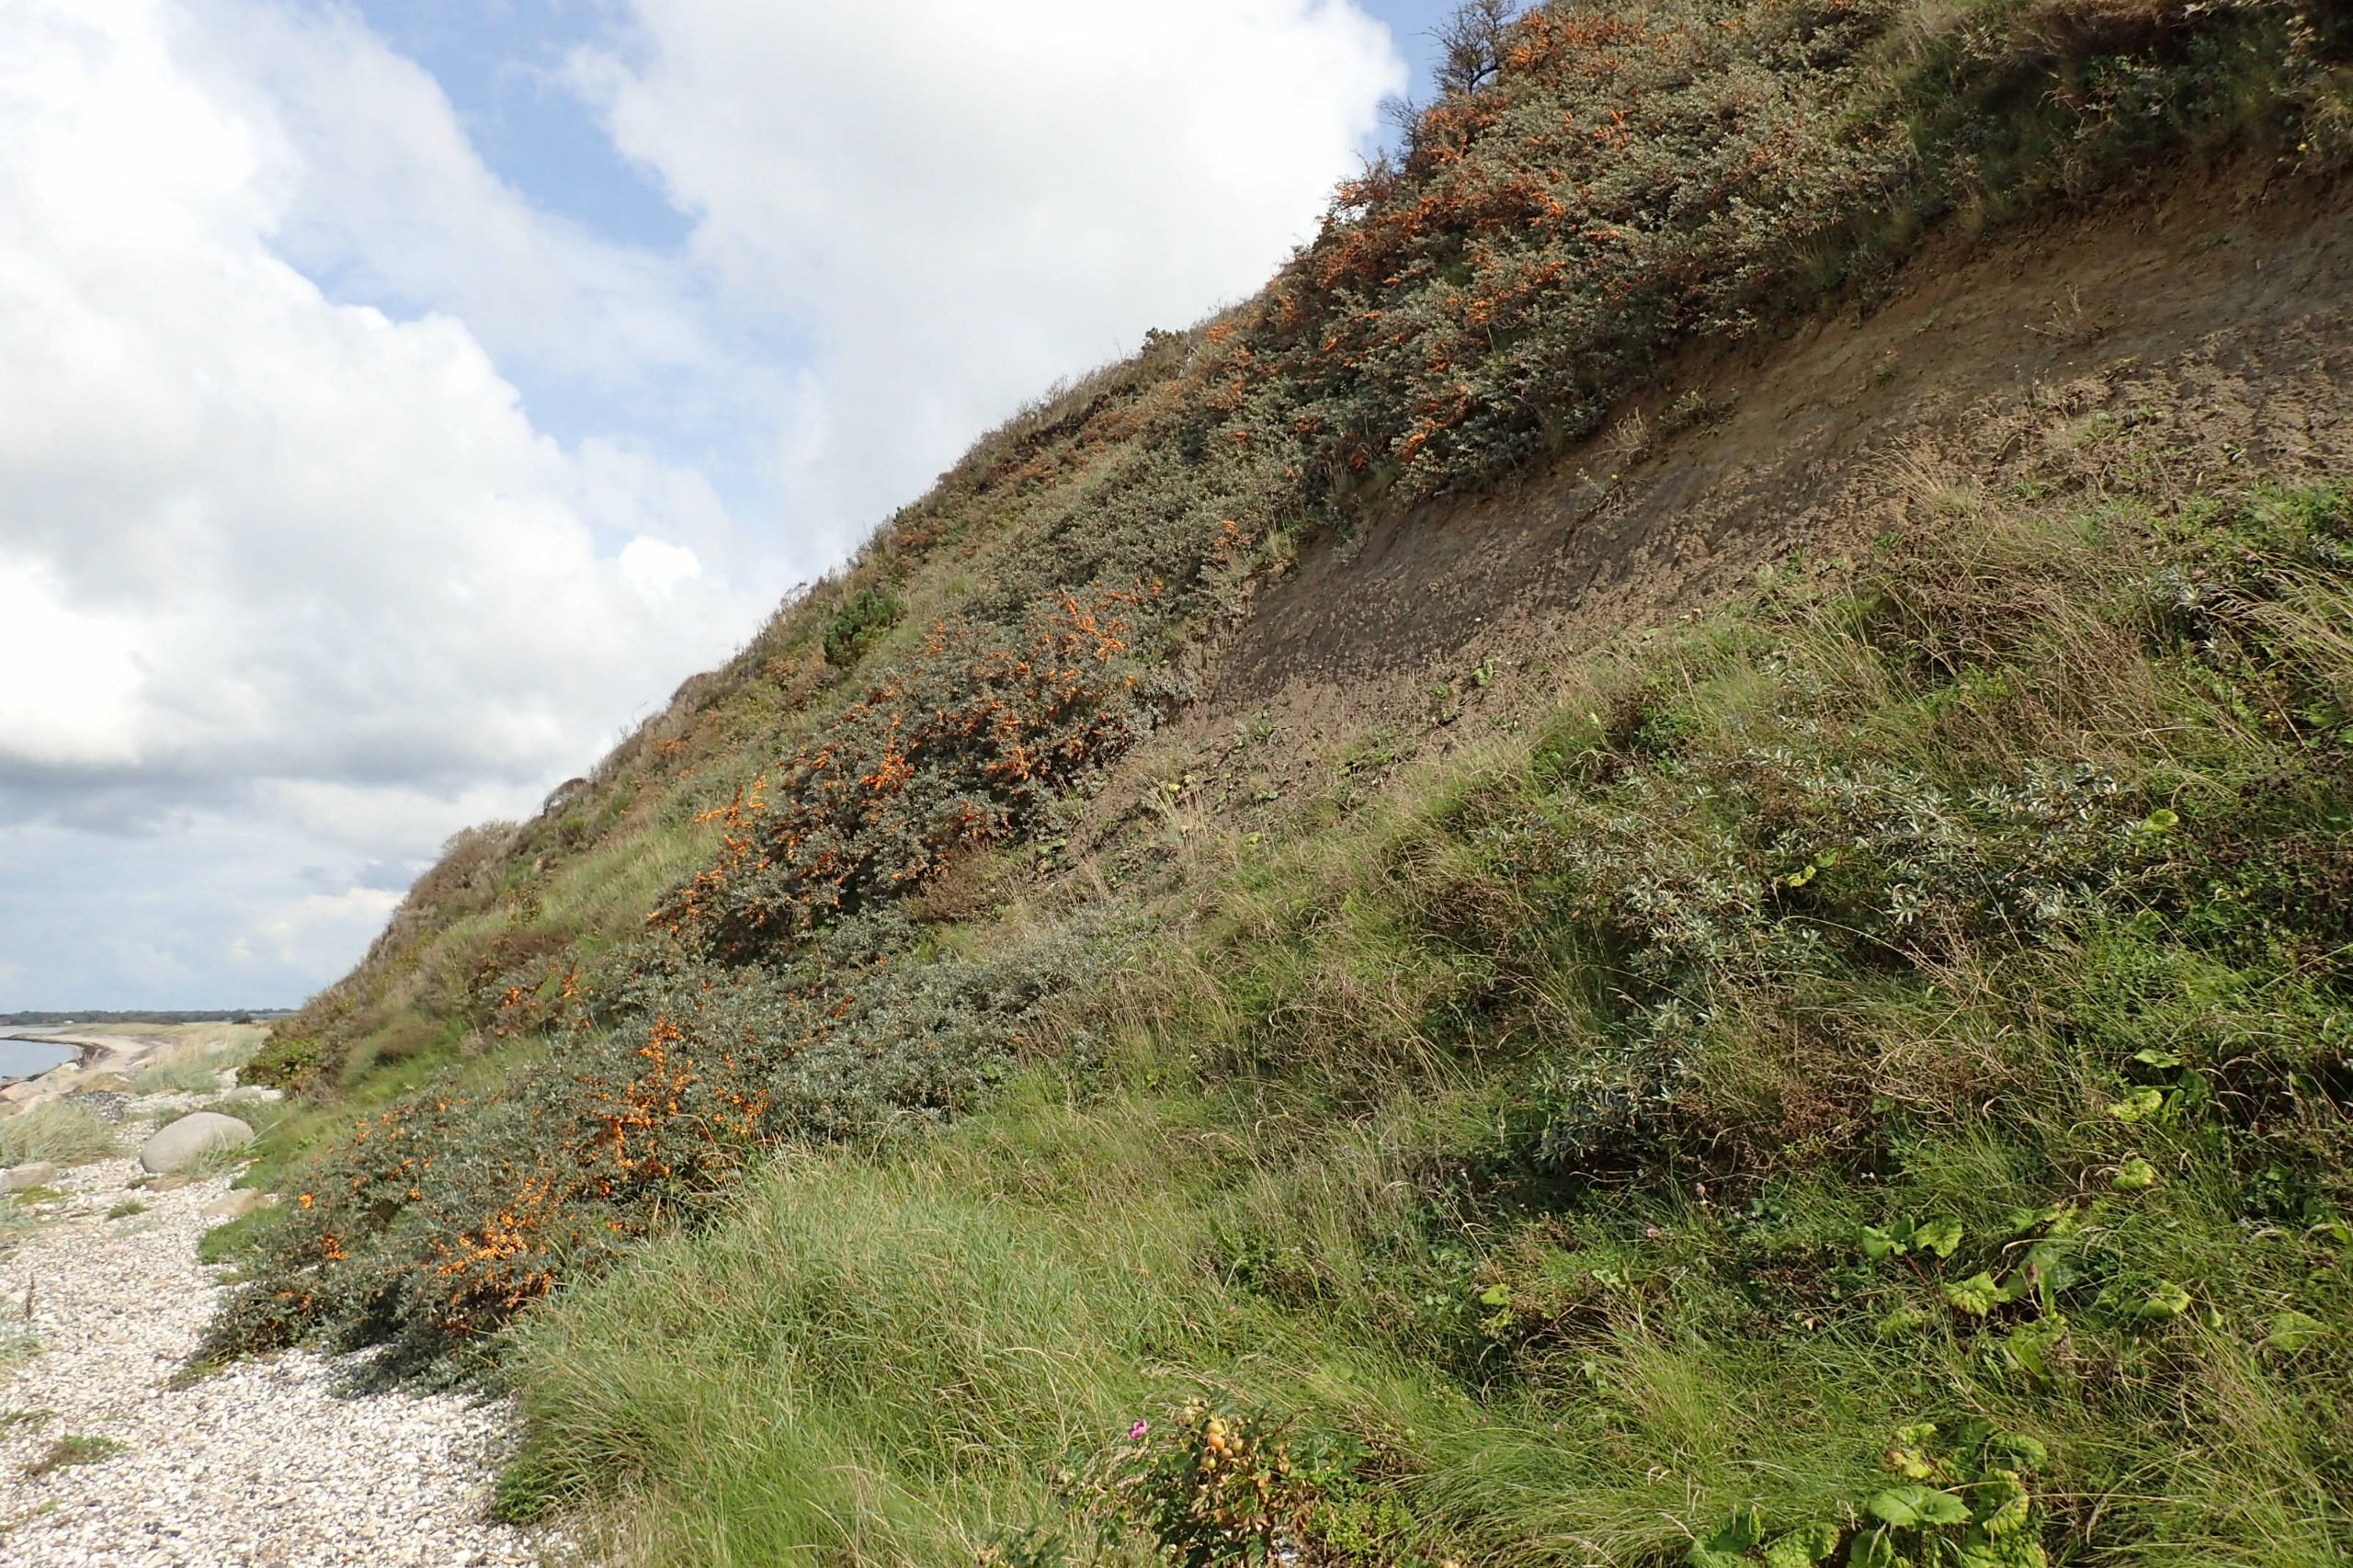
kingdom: Plantae
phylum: Tracheophyta
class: Magnoliopsida
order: Rosales
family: Elaeagnaceae
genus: Hippophae
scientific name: Hippophae rhamnoides
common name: Havtorn
